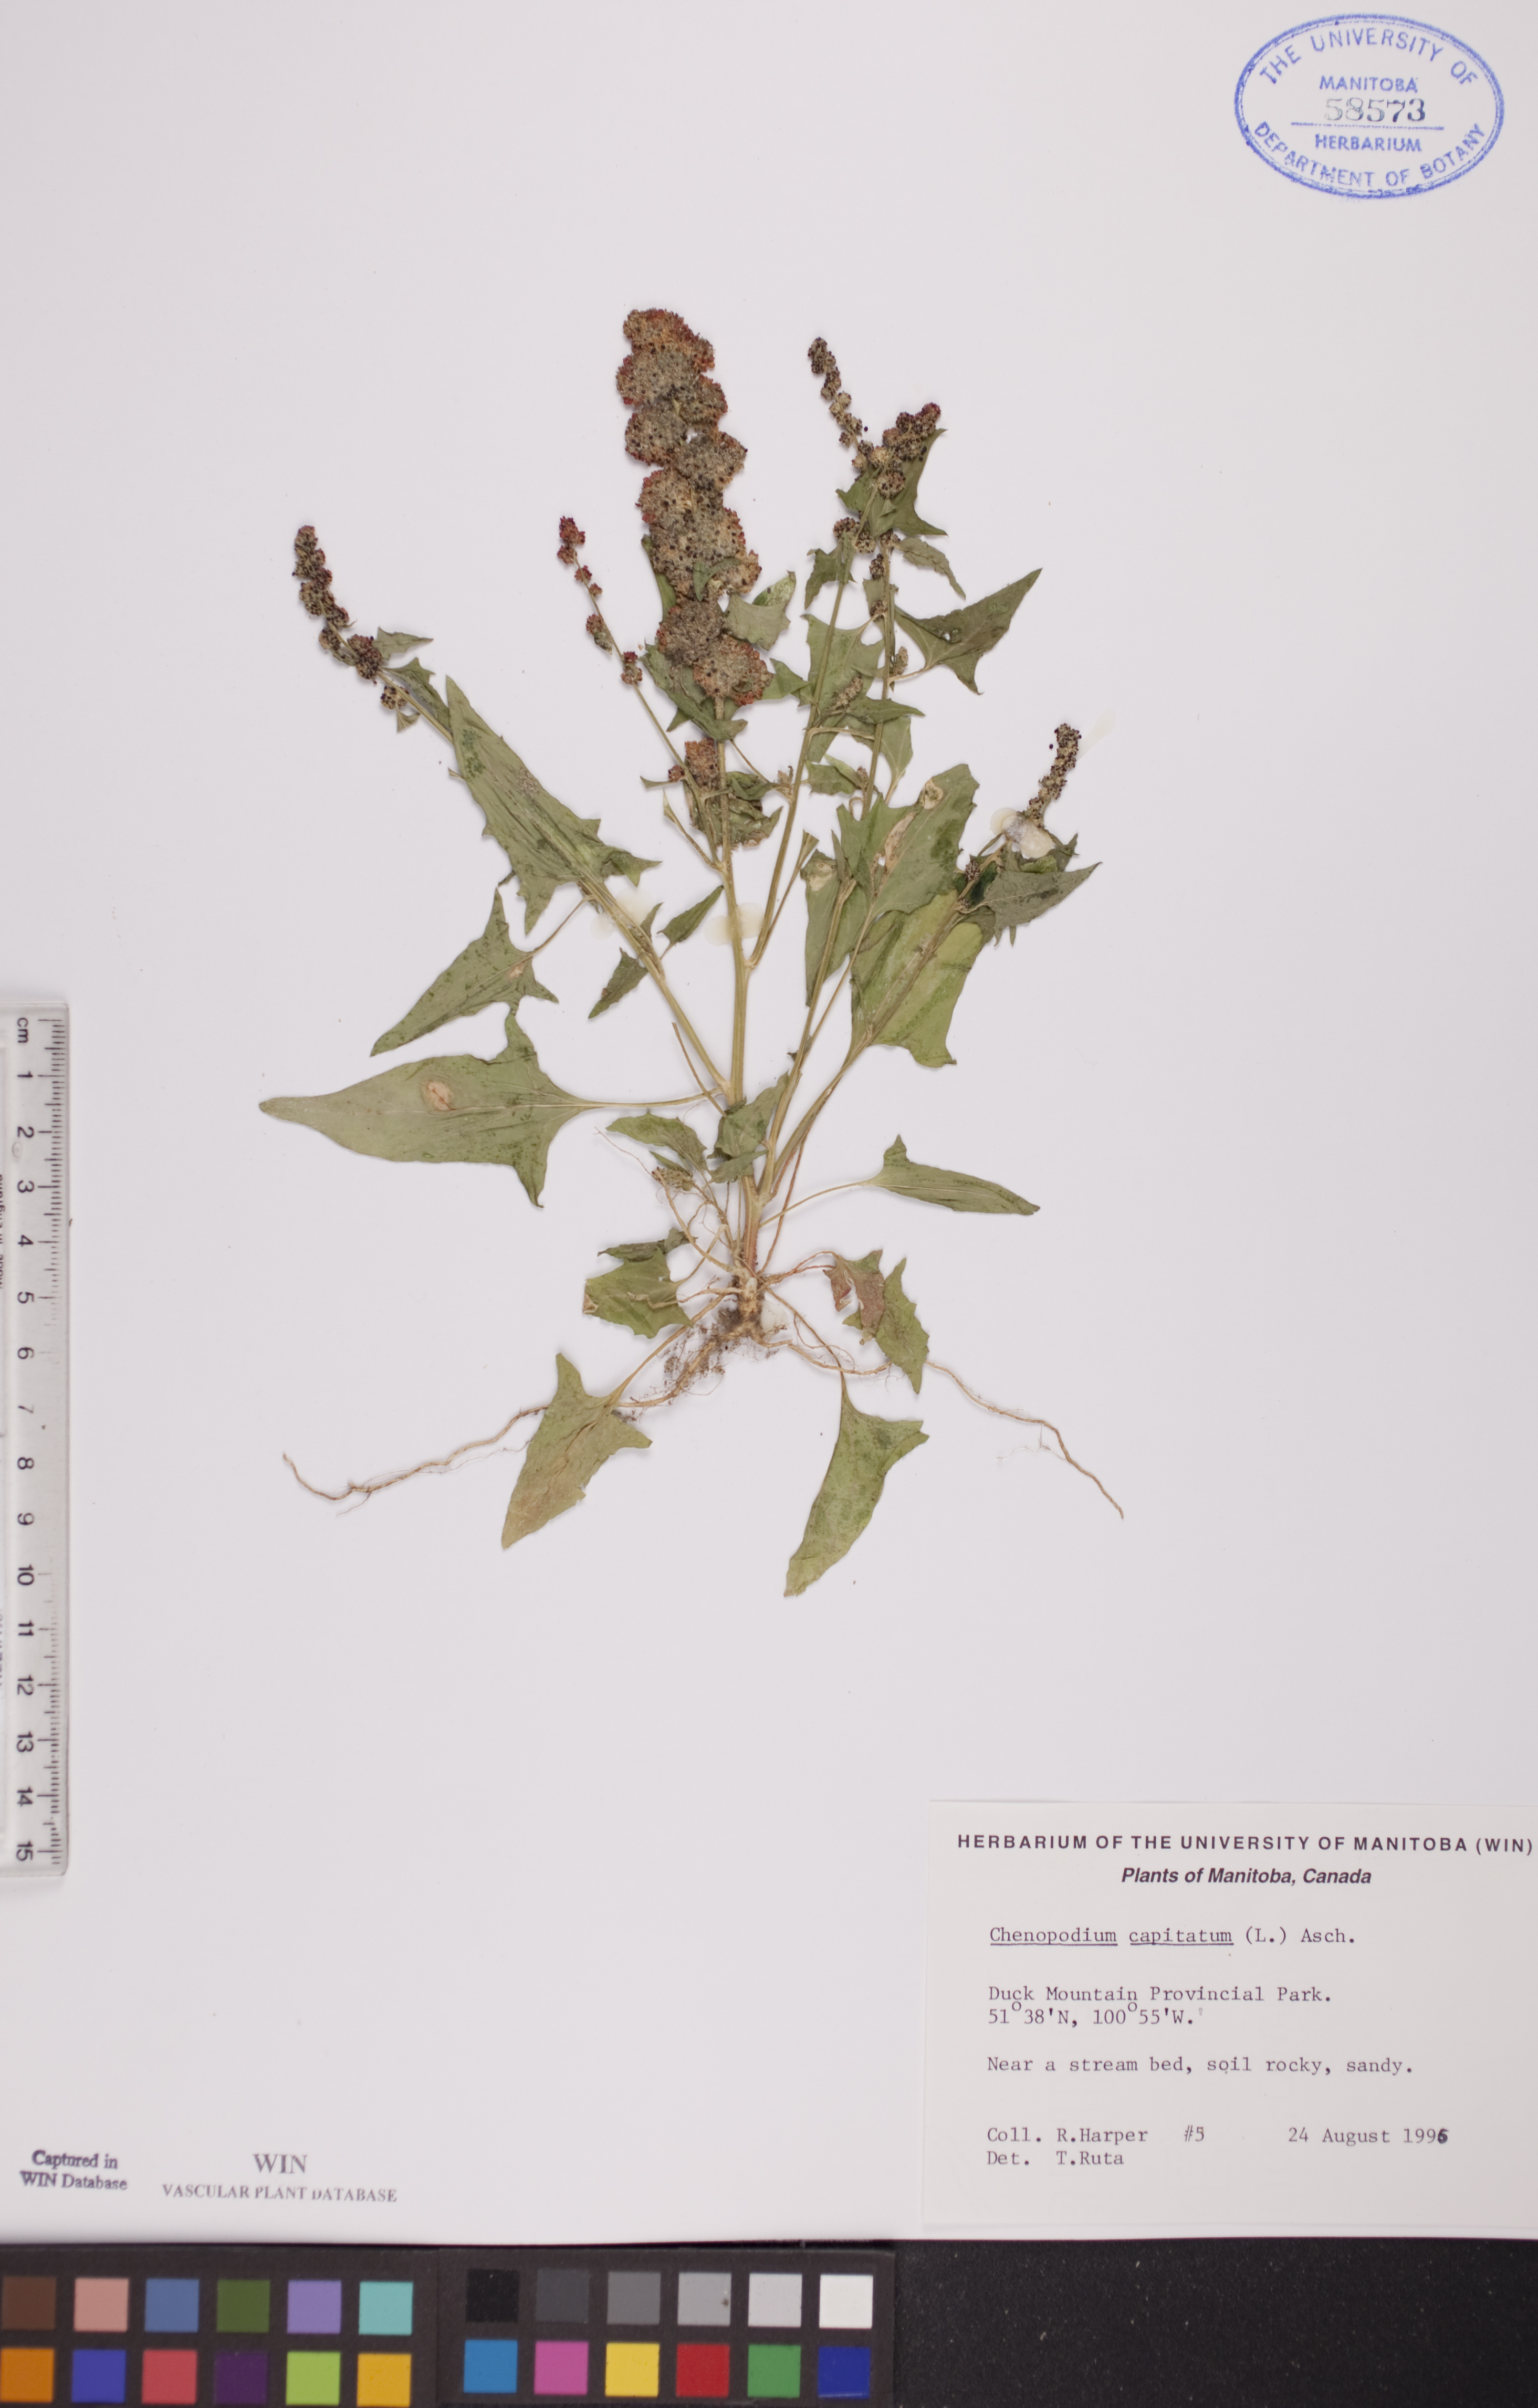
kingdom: Plantae
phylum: Tracheophyta
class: Magnoliopsida
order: Caryophyllales
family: Amaranthaceae
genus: Blitum
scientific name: Blitum capitatum
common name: Strawberry-blight
